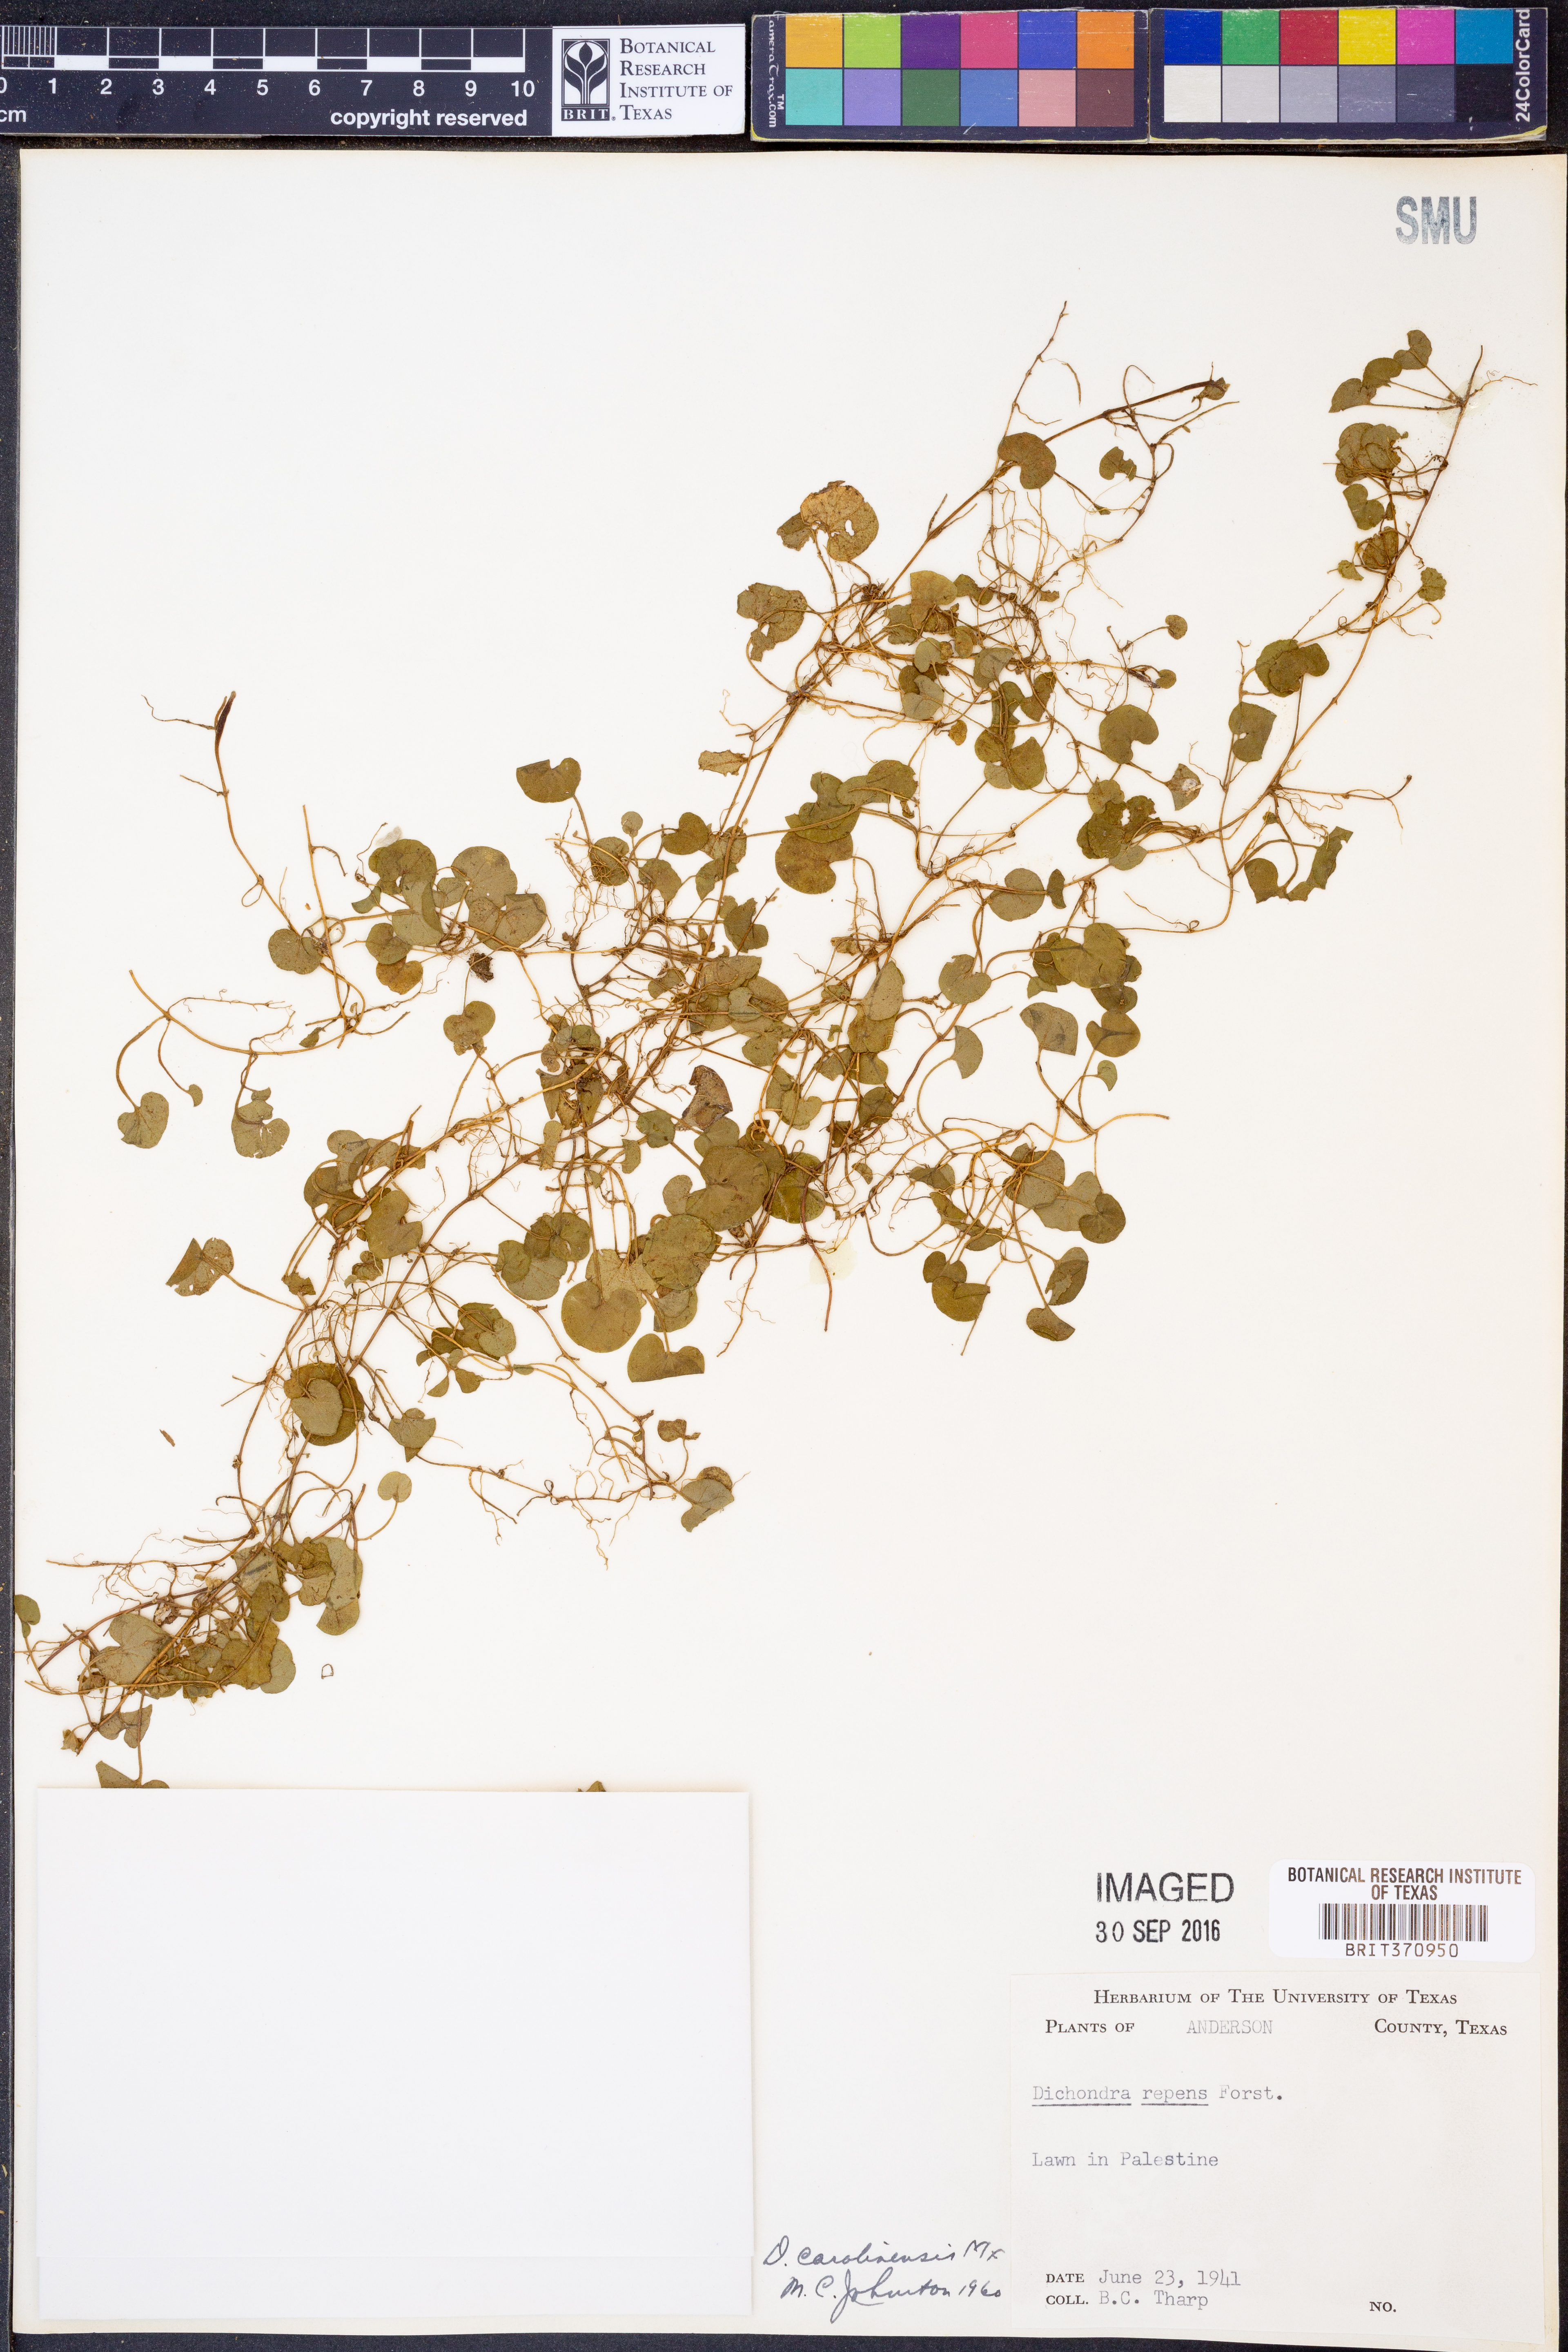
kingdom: Plantae
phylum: Tracheophyta
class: Magnoliopsida
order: Solanales
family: Convolvulaceae
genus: Dichondra
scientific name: Dichondra carolinensis
